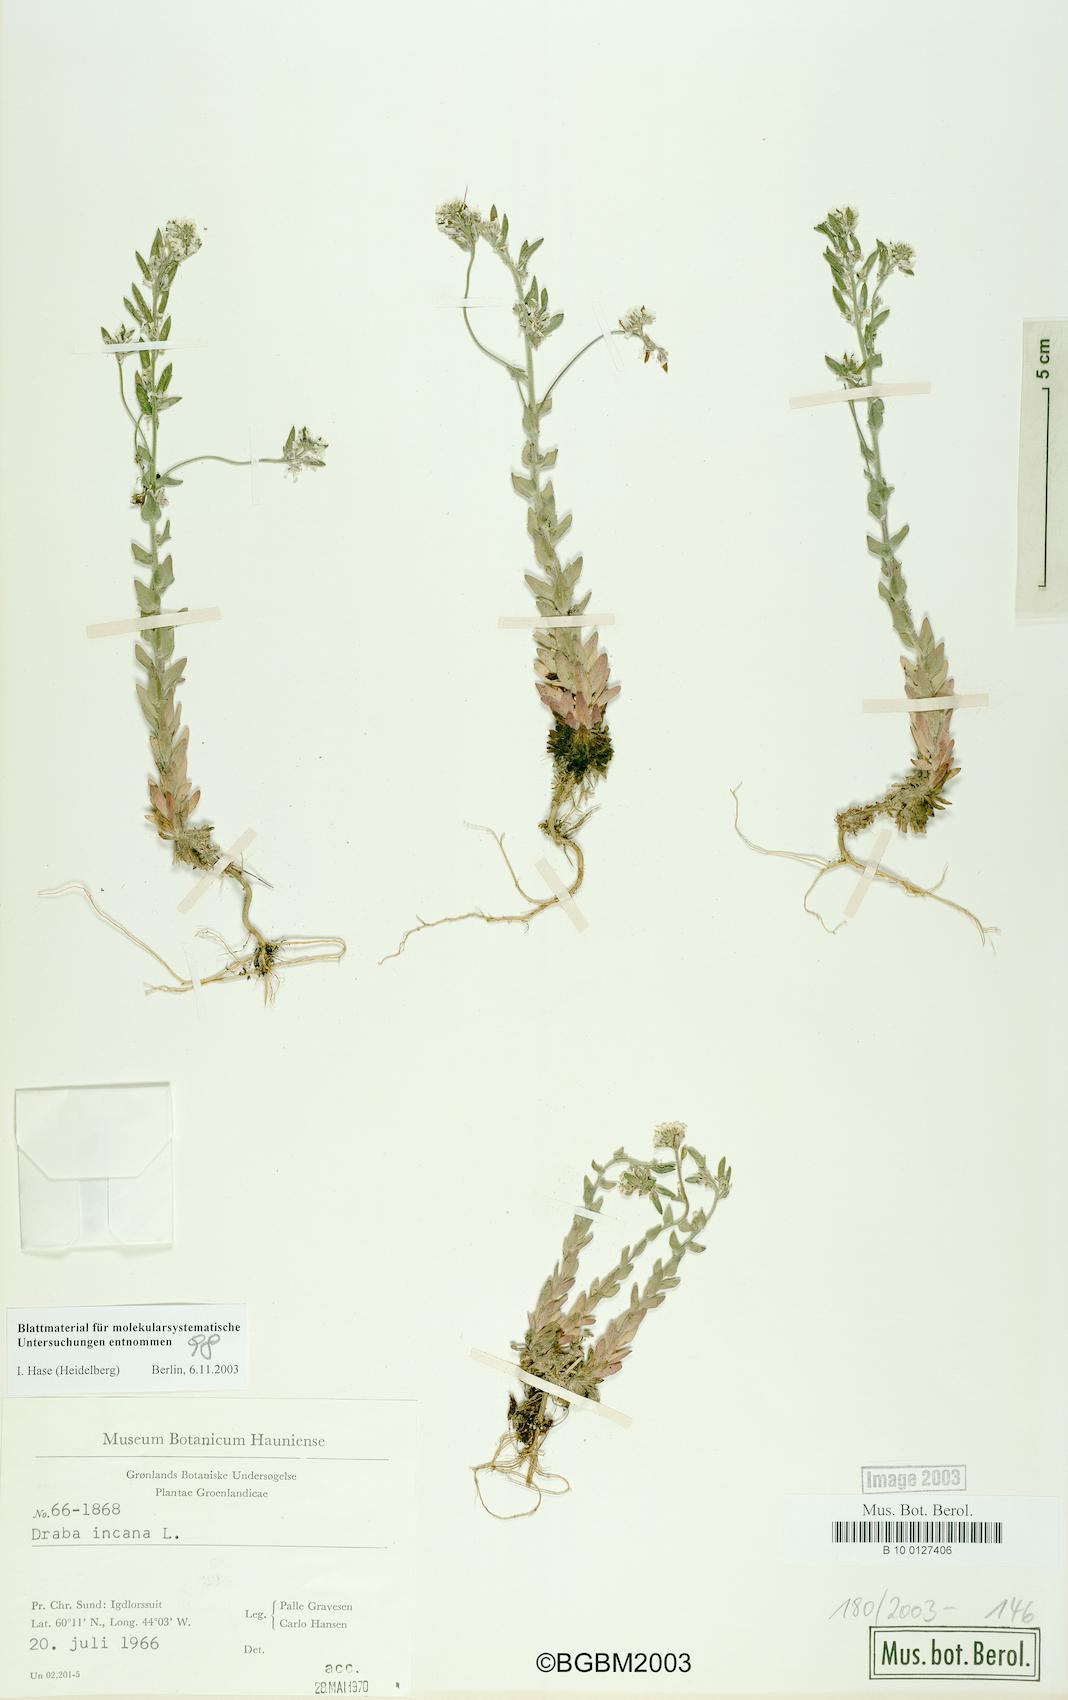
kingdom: Plantae
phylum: Tracheophyta
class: Magnoliopsida
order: Brassicales
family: Brassicaceae
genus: Draba
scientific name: Draba incana
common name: Hoary whitlow-grass
